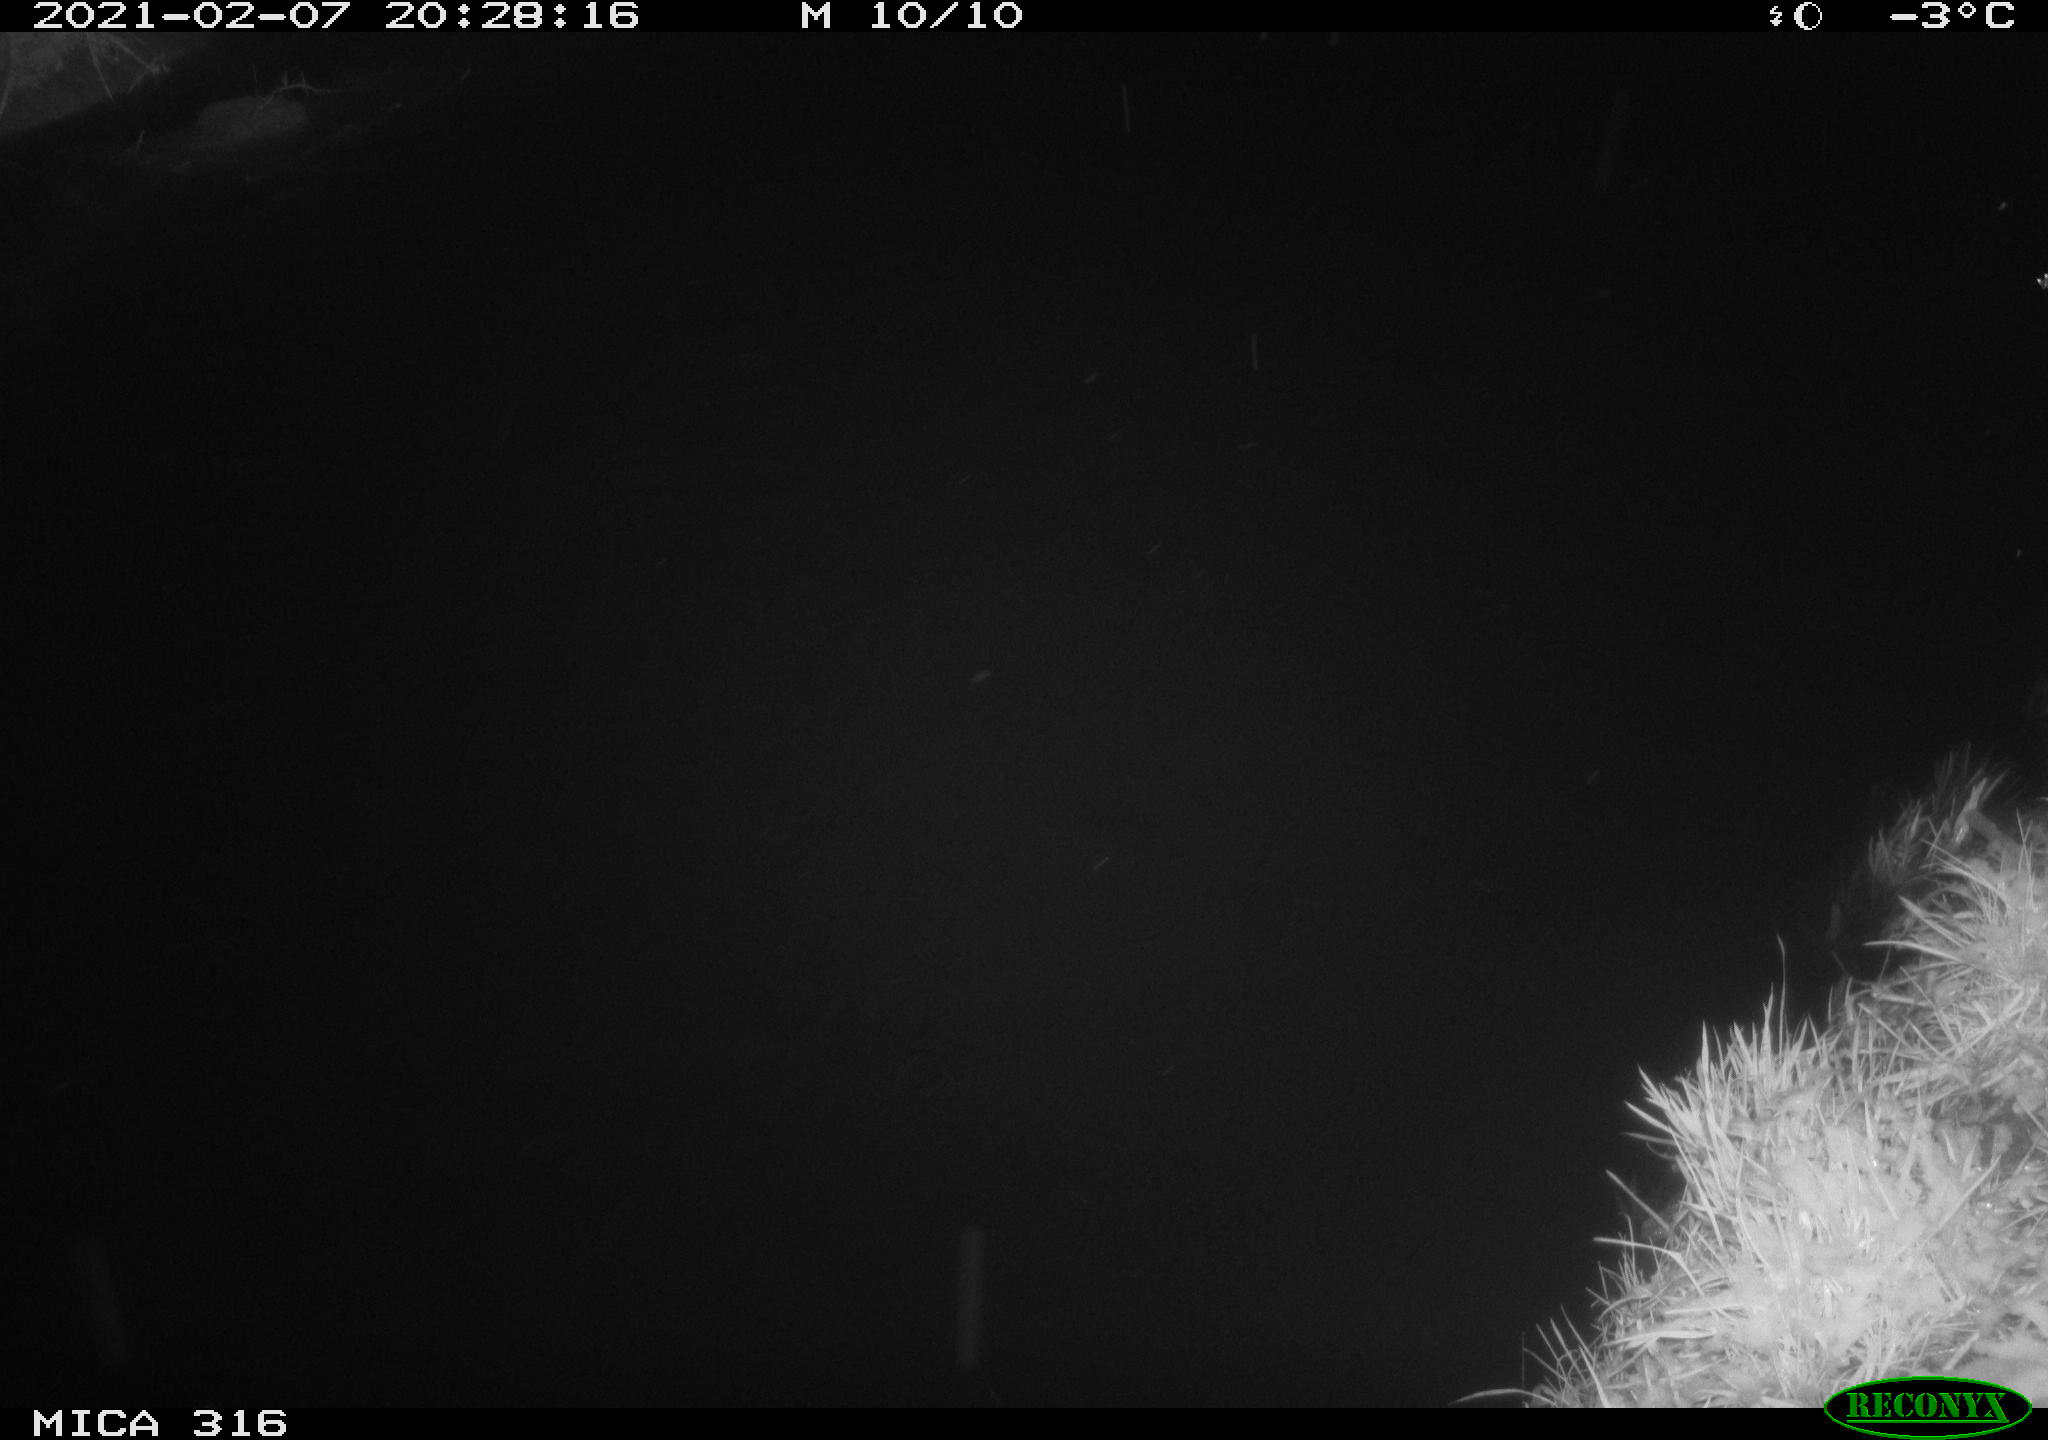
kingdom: Animalia
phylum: Chordata
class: Aves
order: Anseriformes
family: Anatidae
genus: Anas
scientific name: Anas platyrhynchos
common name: Mallard
